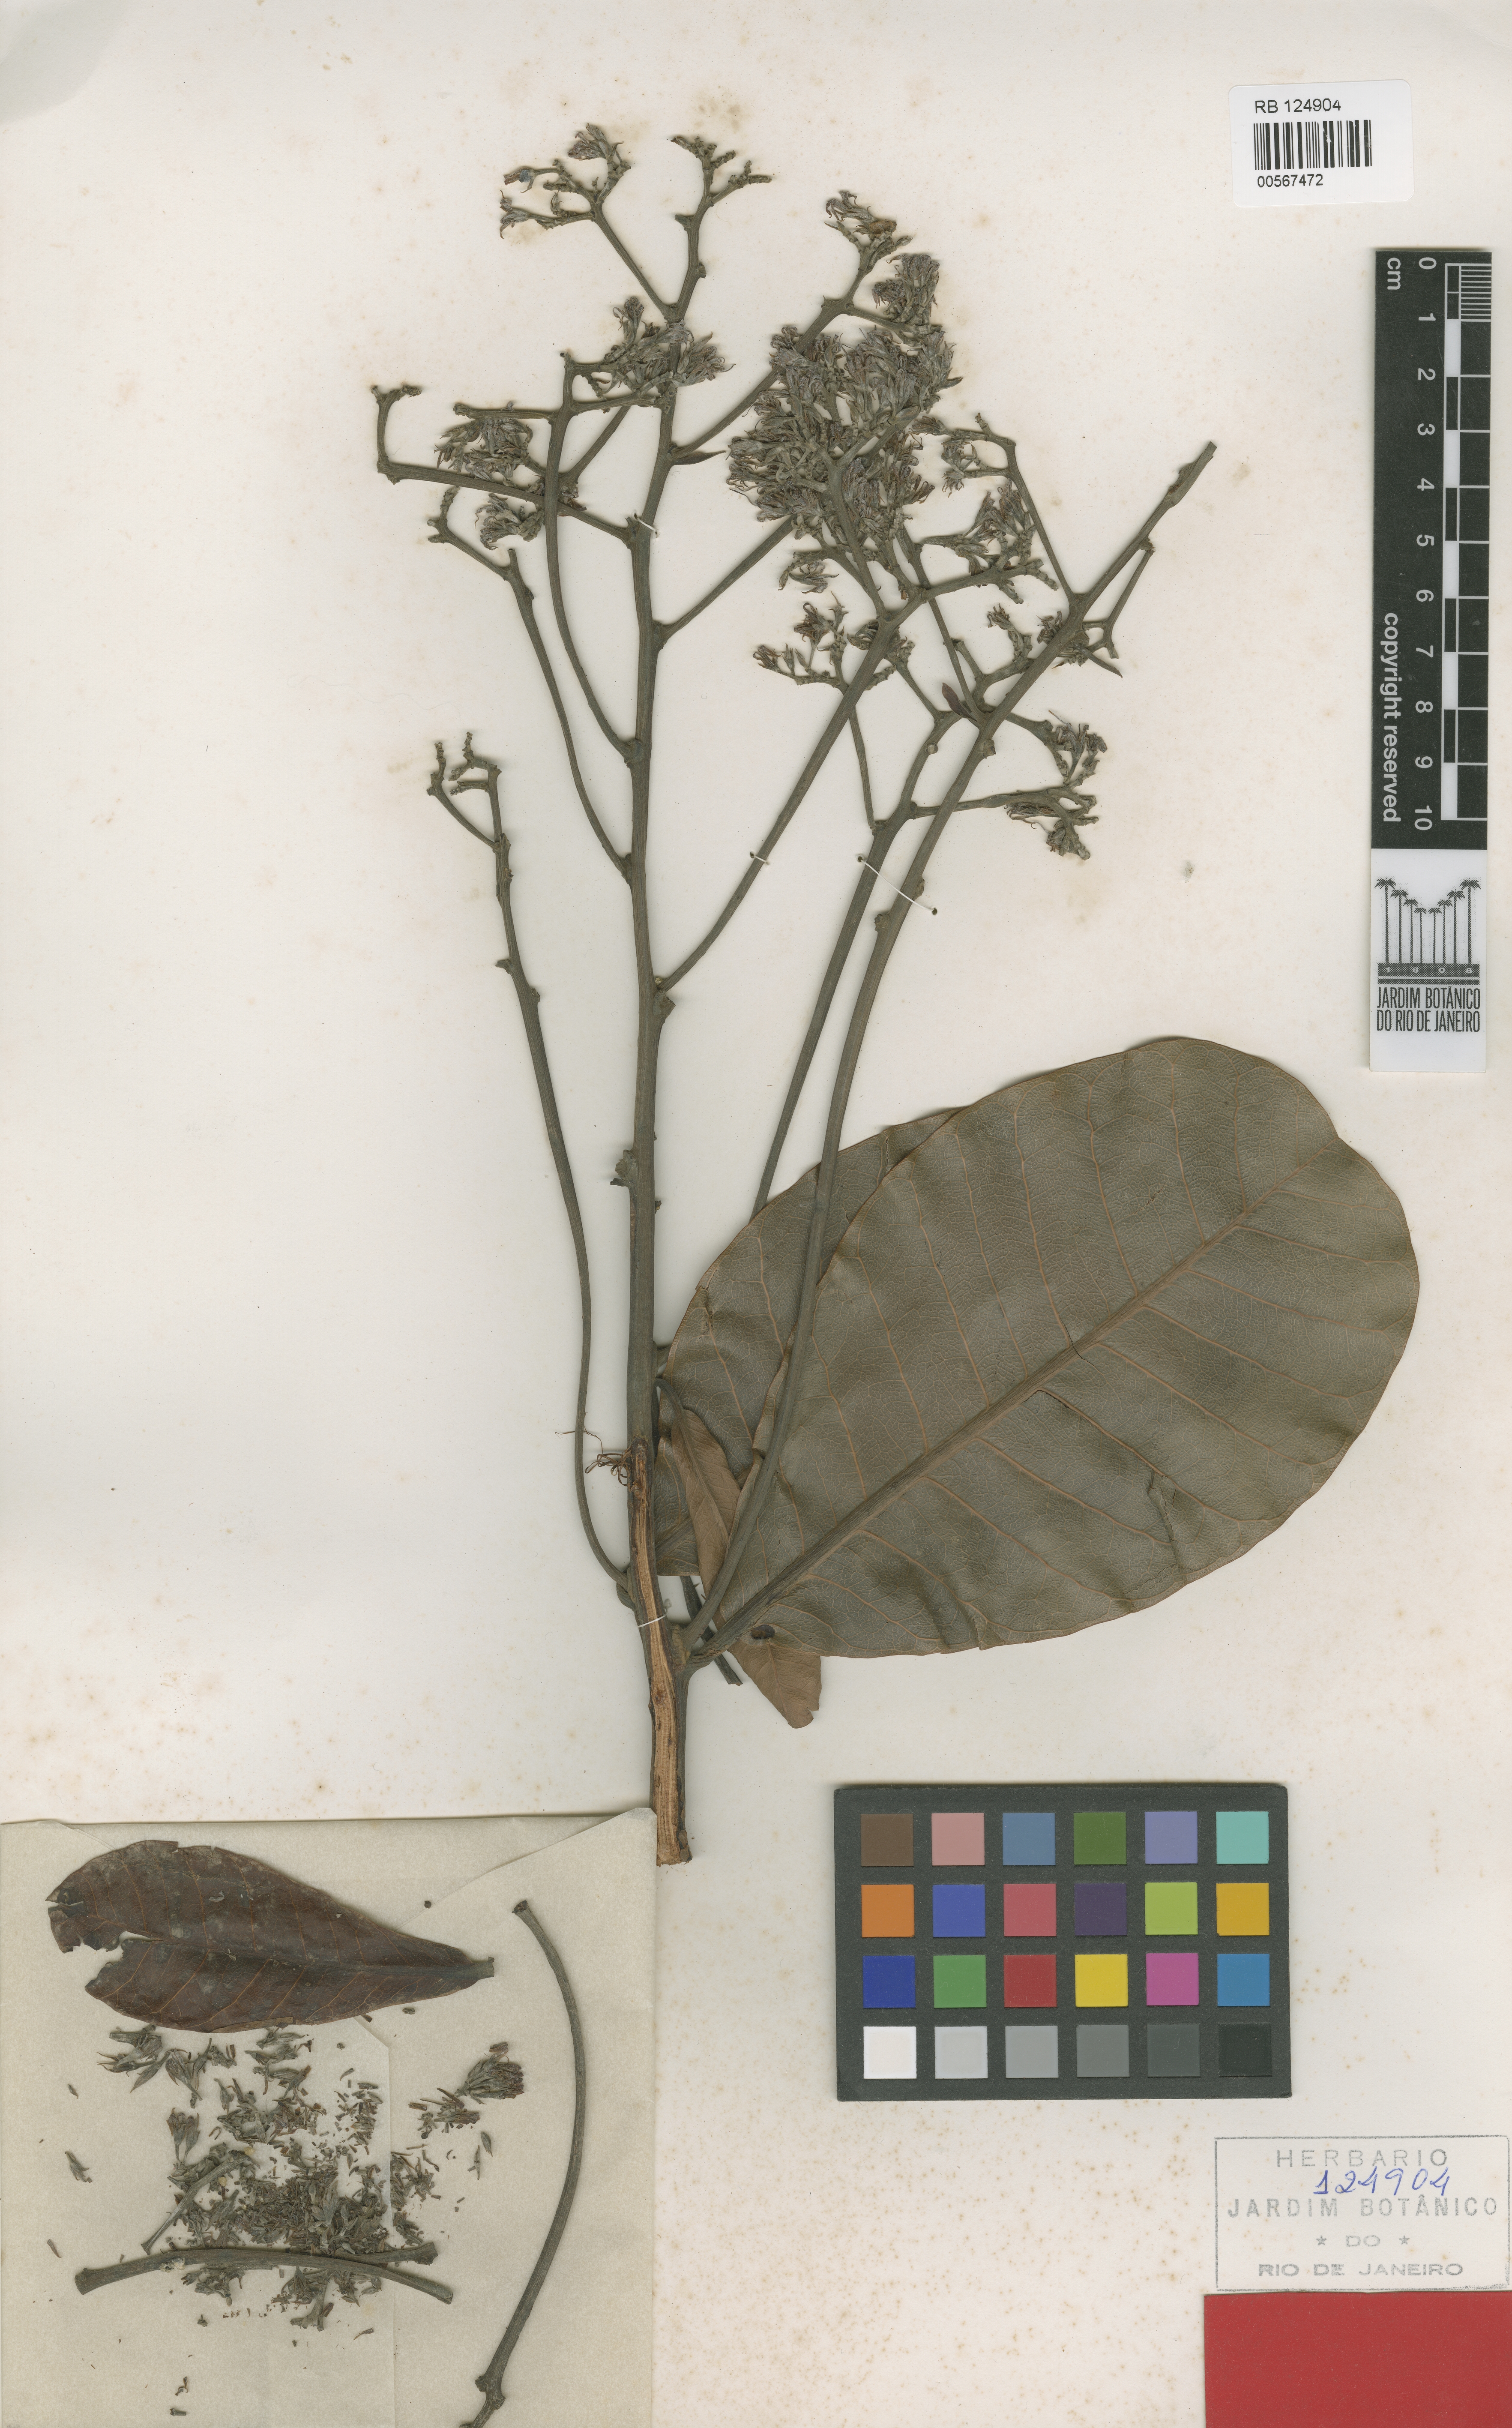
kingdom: Plantae
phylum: Tracheophyta
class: Magnoliopsida
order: Sapindales
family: Anacardiaceae
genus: Anacardium
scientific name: Anacardium occidentale
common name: Cashew
